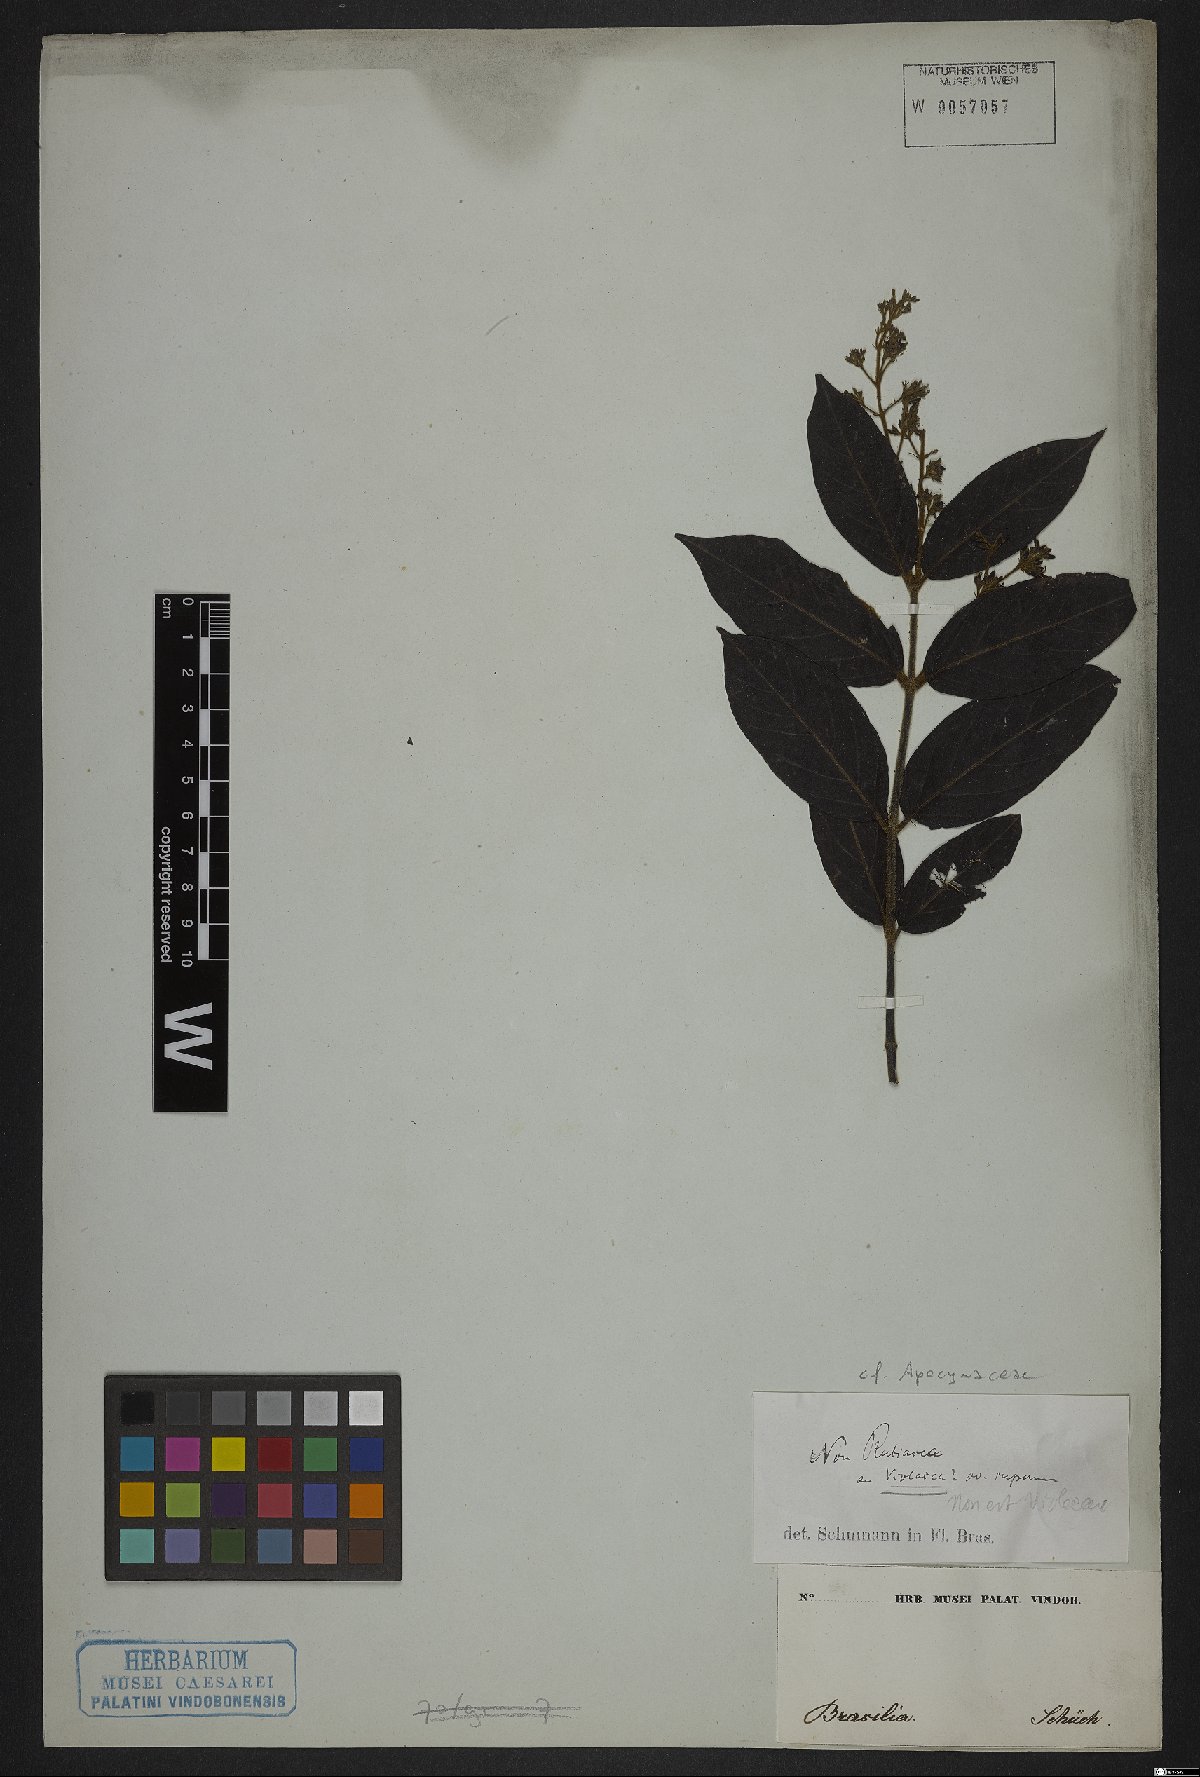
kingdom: Plantae
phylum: Tracheophyta
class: Magnoliopsida
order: Gentianales
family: Apocynaceae
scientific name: Apocynaceae
